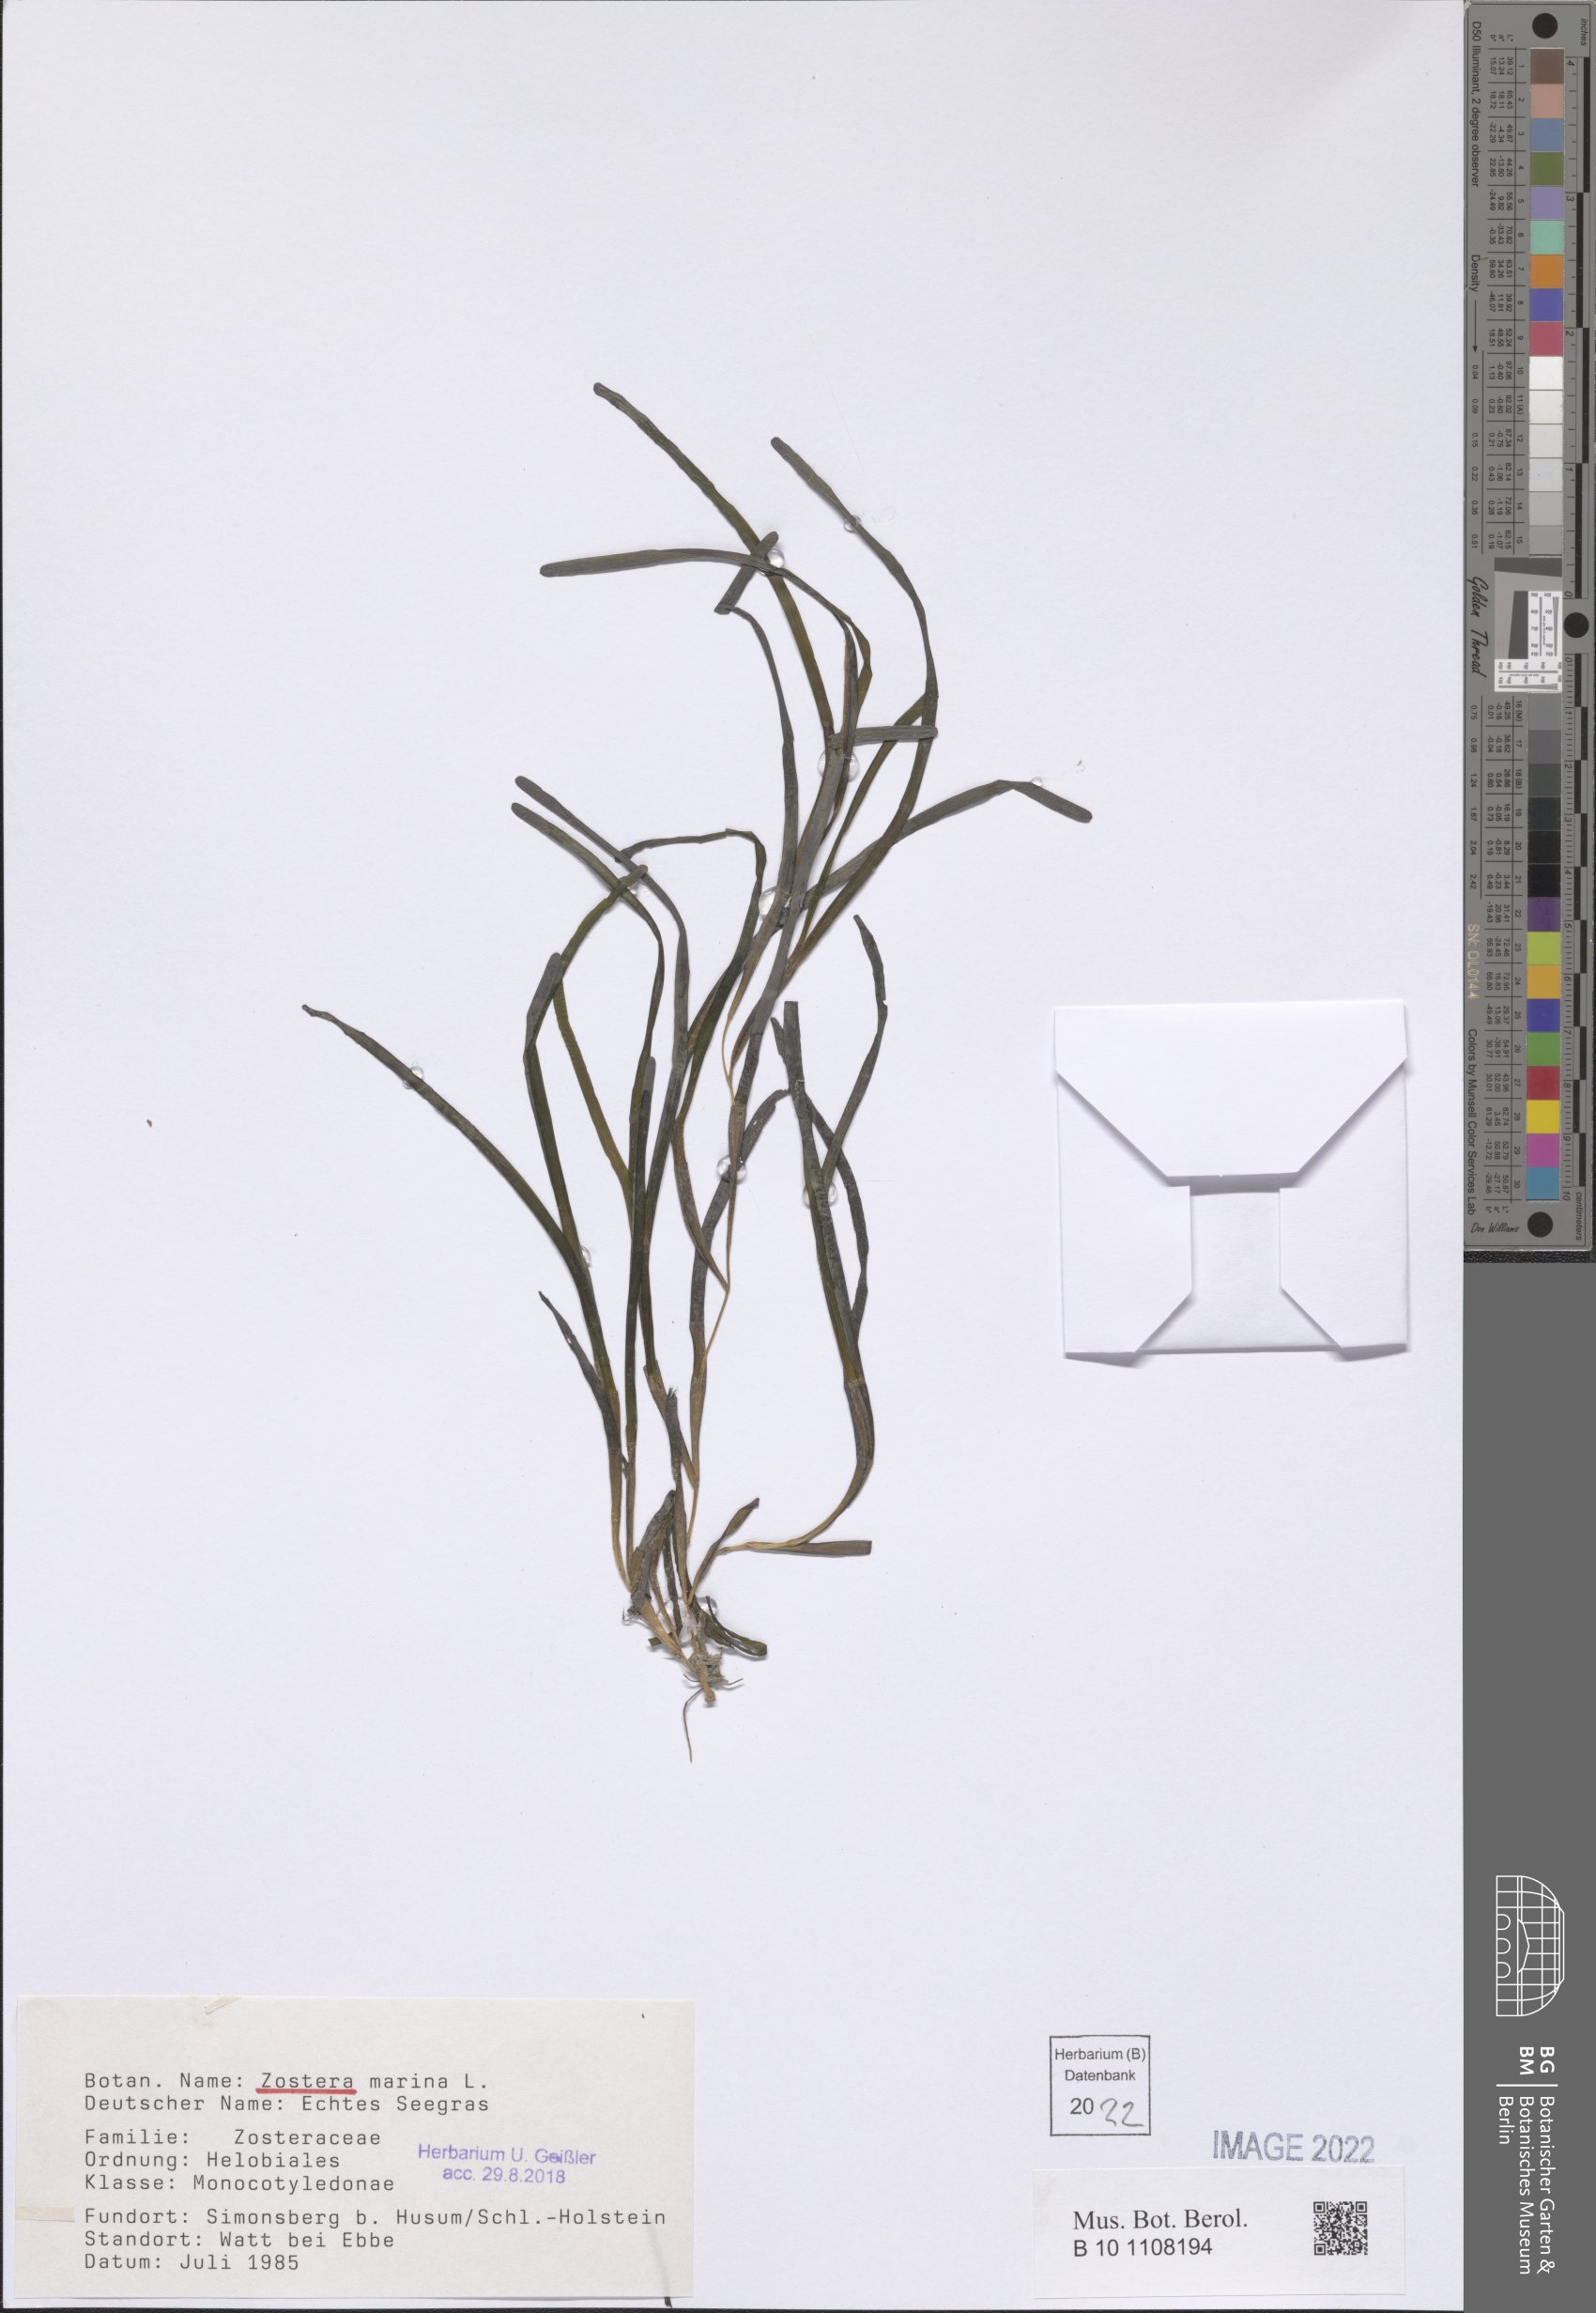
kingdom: Plantae
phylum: Tracheophyta
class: Liliopsida
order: Alismatales
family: Zosteraceae
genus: Zostera
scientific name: Zostera marina
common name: Eelgrass
